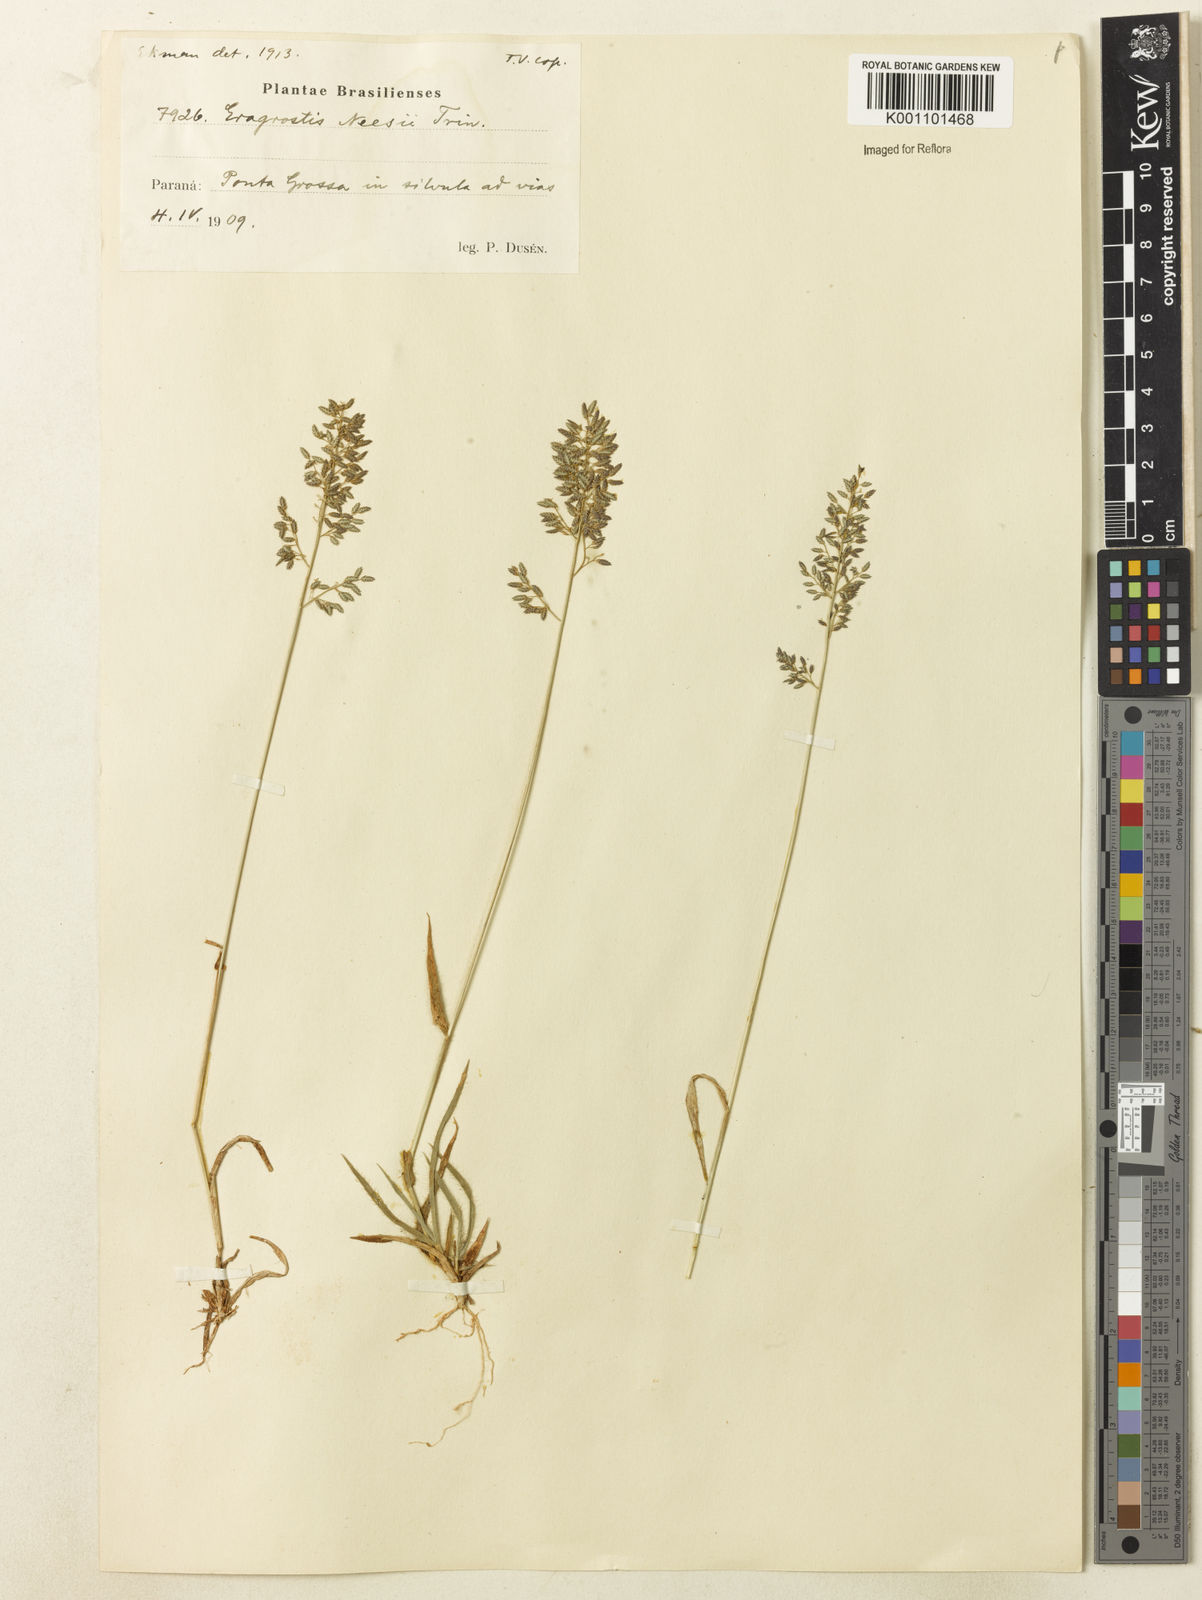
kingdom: Plantae
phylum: Tracheophyta
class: Liliopsida
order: Poales
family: Poaceae
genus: Eragrostis
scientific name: Eragrostis neesii
